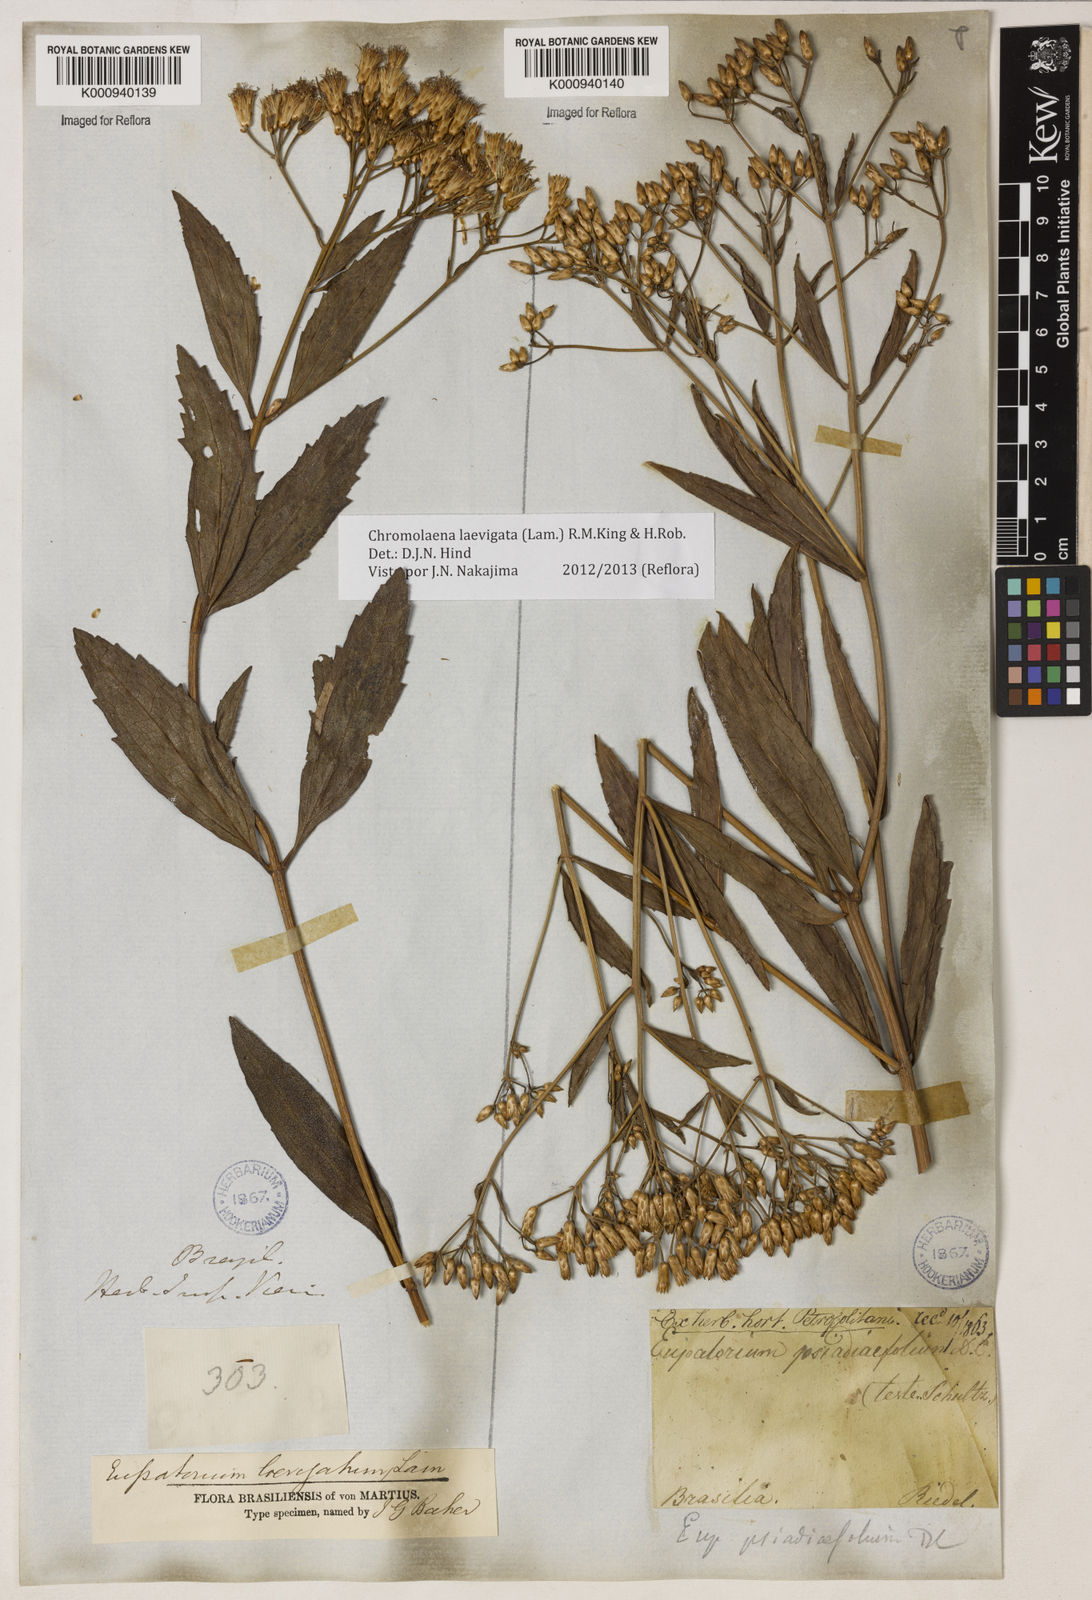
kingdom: Plantae
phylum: Tracheophyta
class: Magnoliopsida
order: Asterales
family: Asteraceae
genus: Chromolaena
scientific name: Chromolaena laevigata
